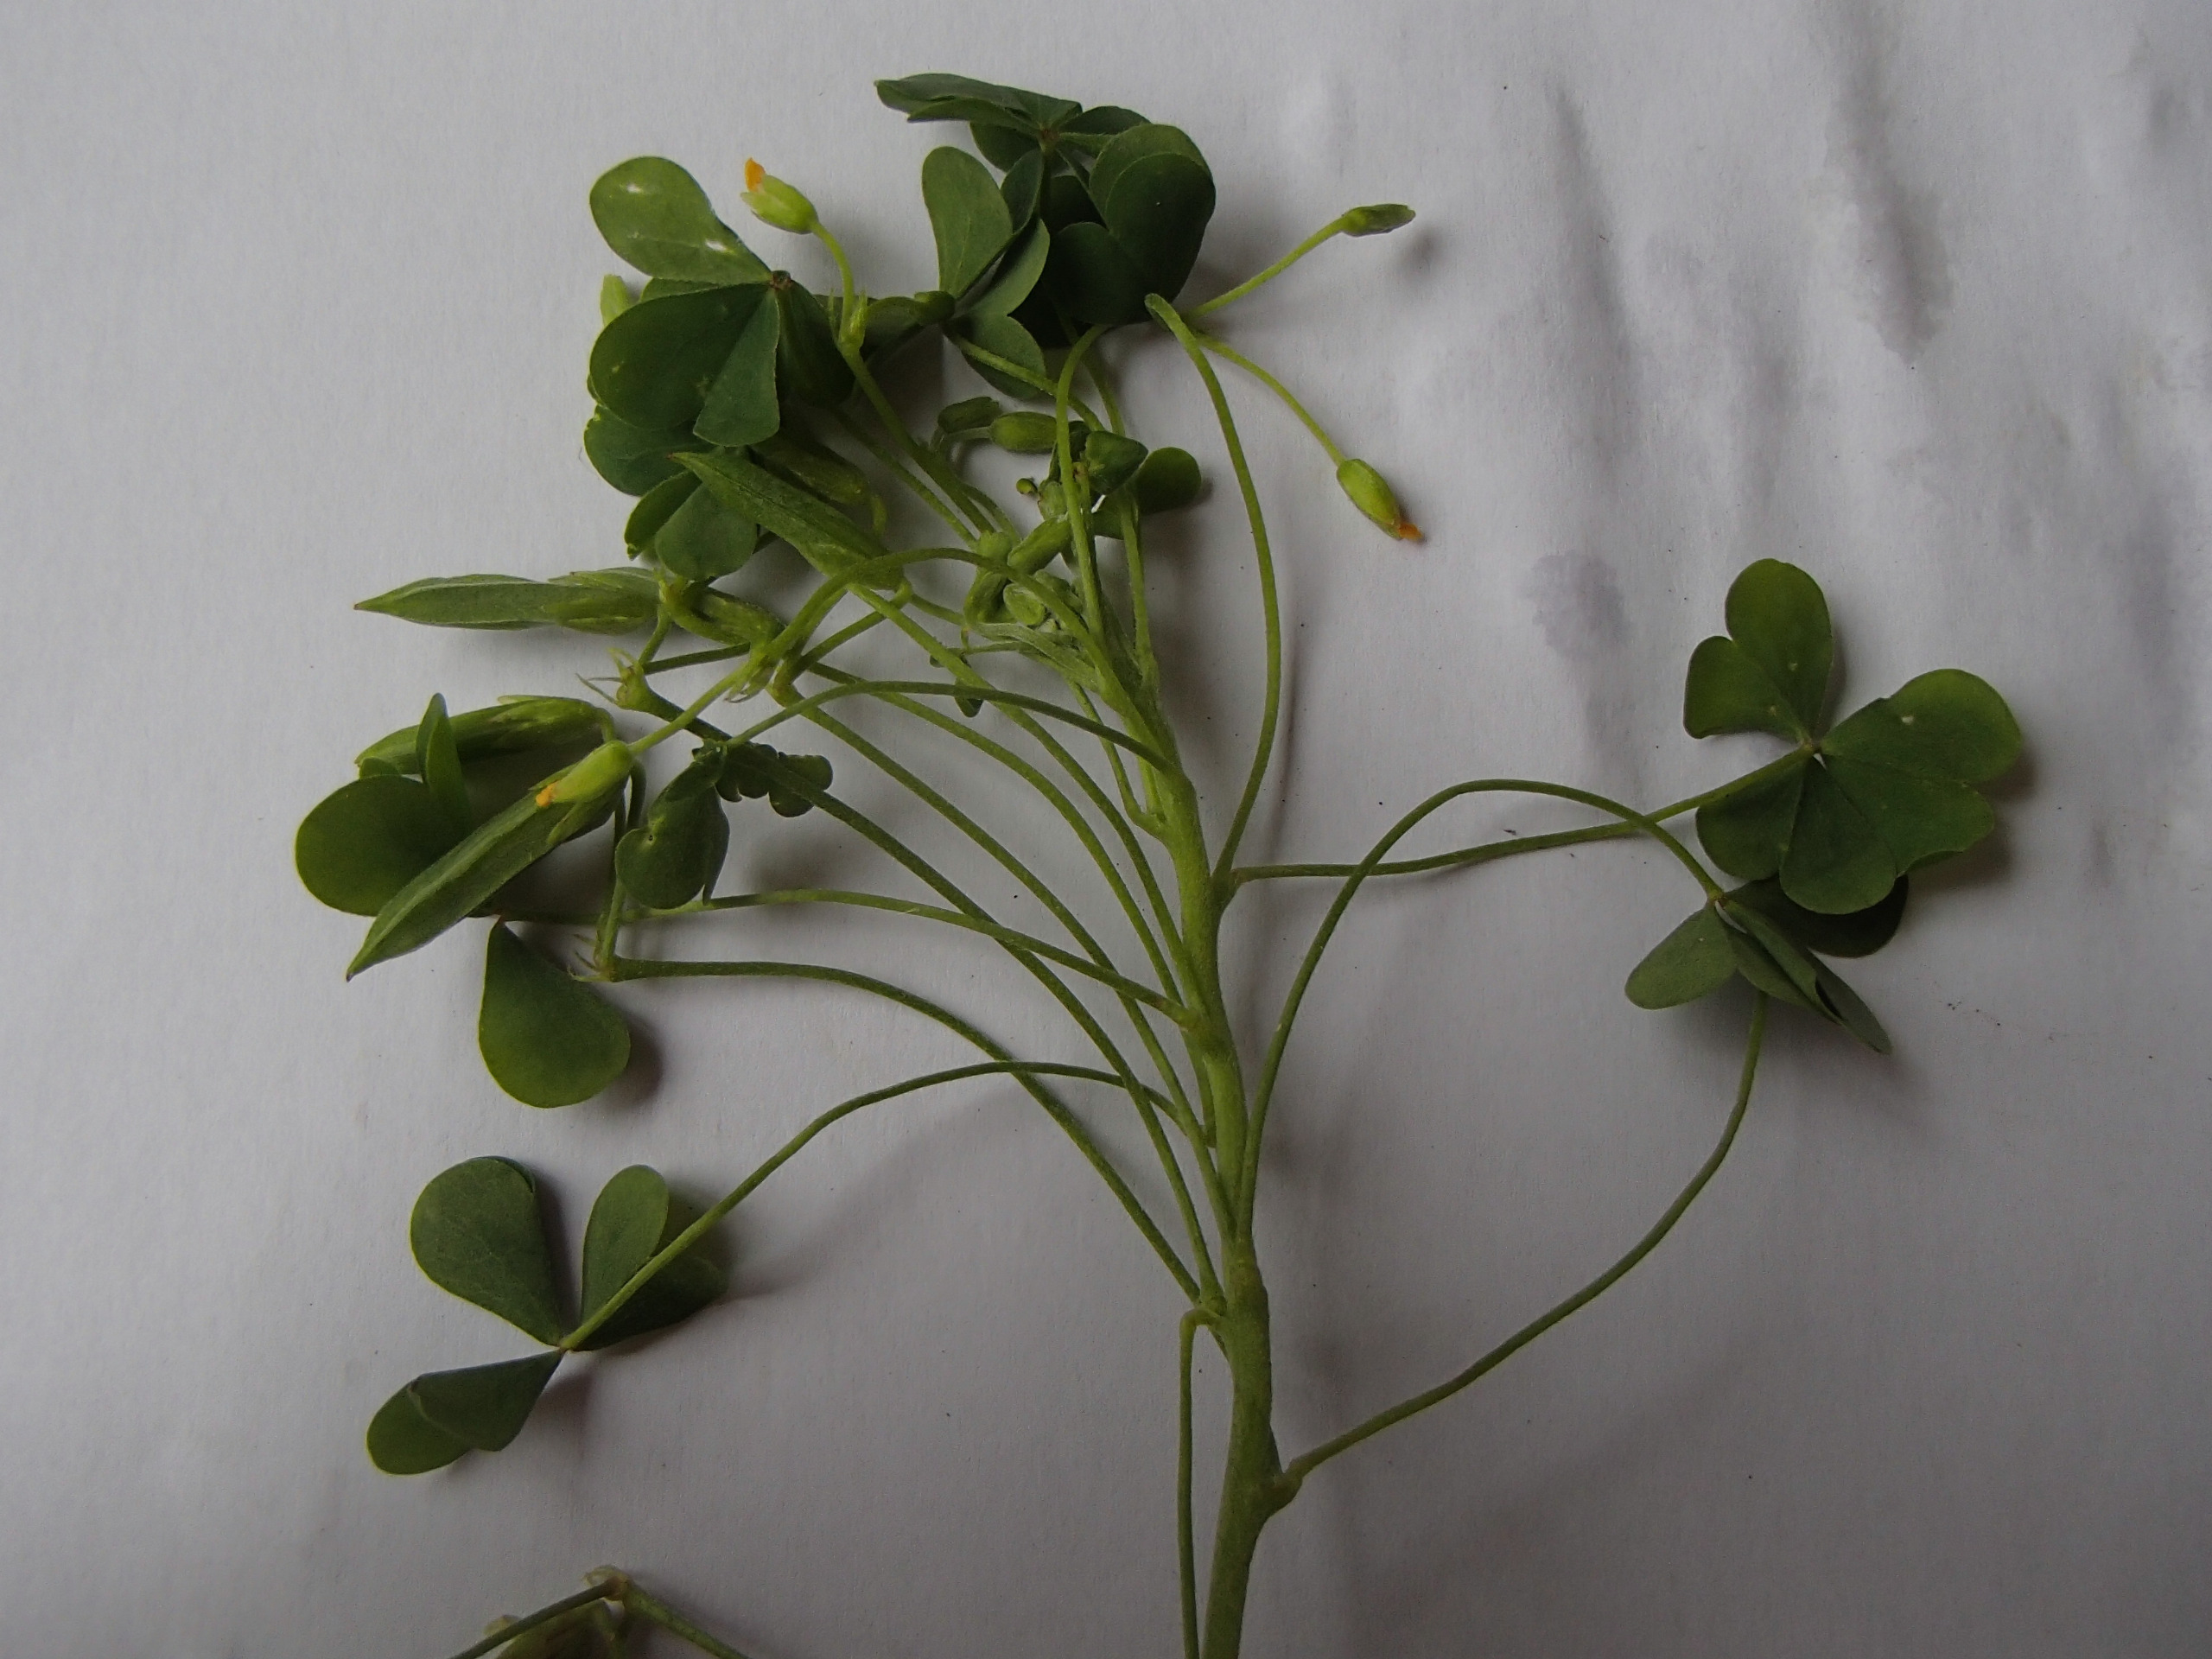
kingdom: Plantae
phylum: Tracheophyta
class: Magnoliopsida
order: Oxalidales
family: Oxalidaceae
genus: Oxalis
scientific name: Oxalis stricta
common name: Rank surkløver
